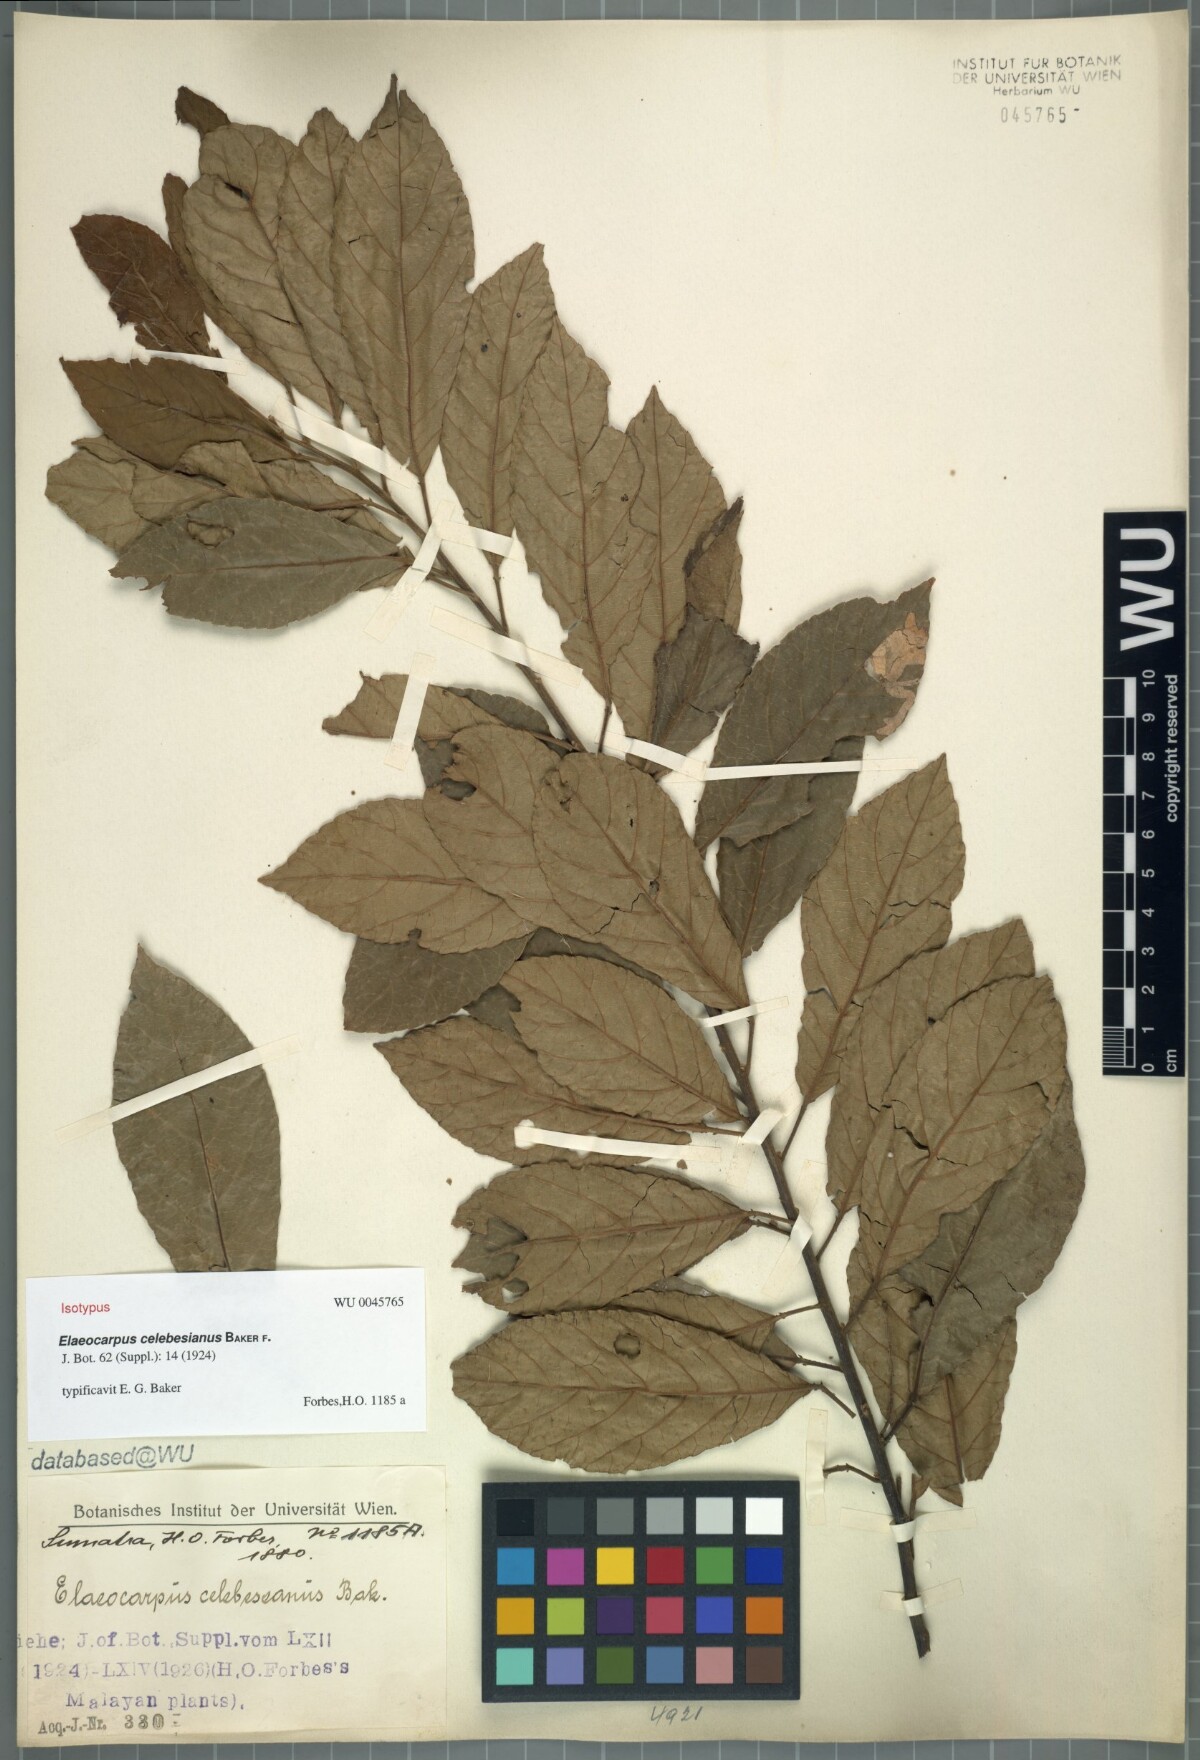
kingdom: Plantae
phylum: Tracheophyta
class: Magnoliopsida
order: Oxalidales
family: Elaeocarpaceae
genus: Elaeocarpus
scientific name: Elaeocarpus celebesianus
